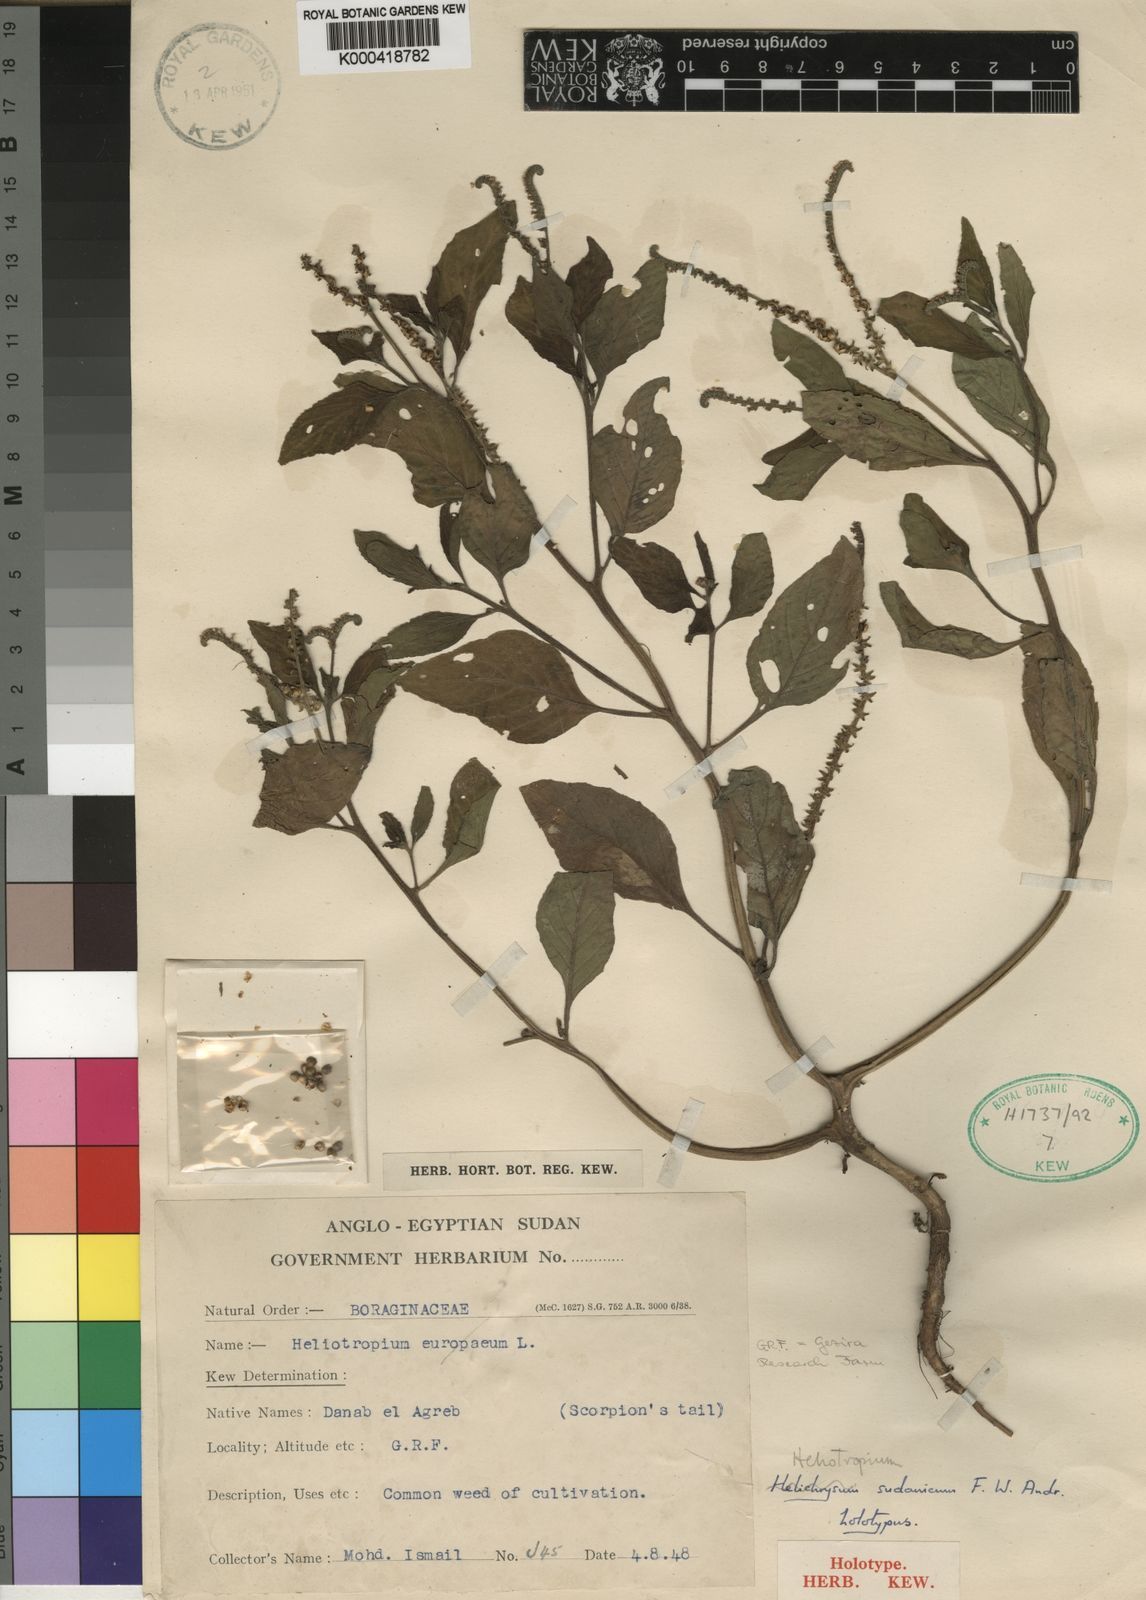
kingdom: Plantae
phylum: Tracheophyta
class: Magnoliopsida
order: Boraginales
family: Heliotropiaceae
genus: Heliotropium
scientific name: Heliotropium sudanicum
